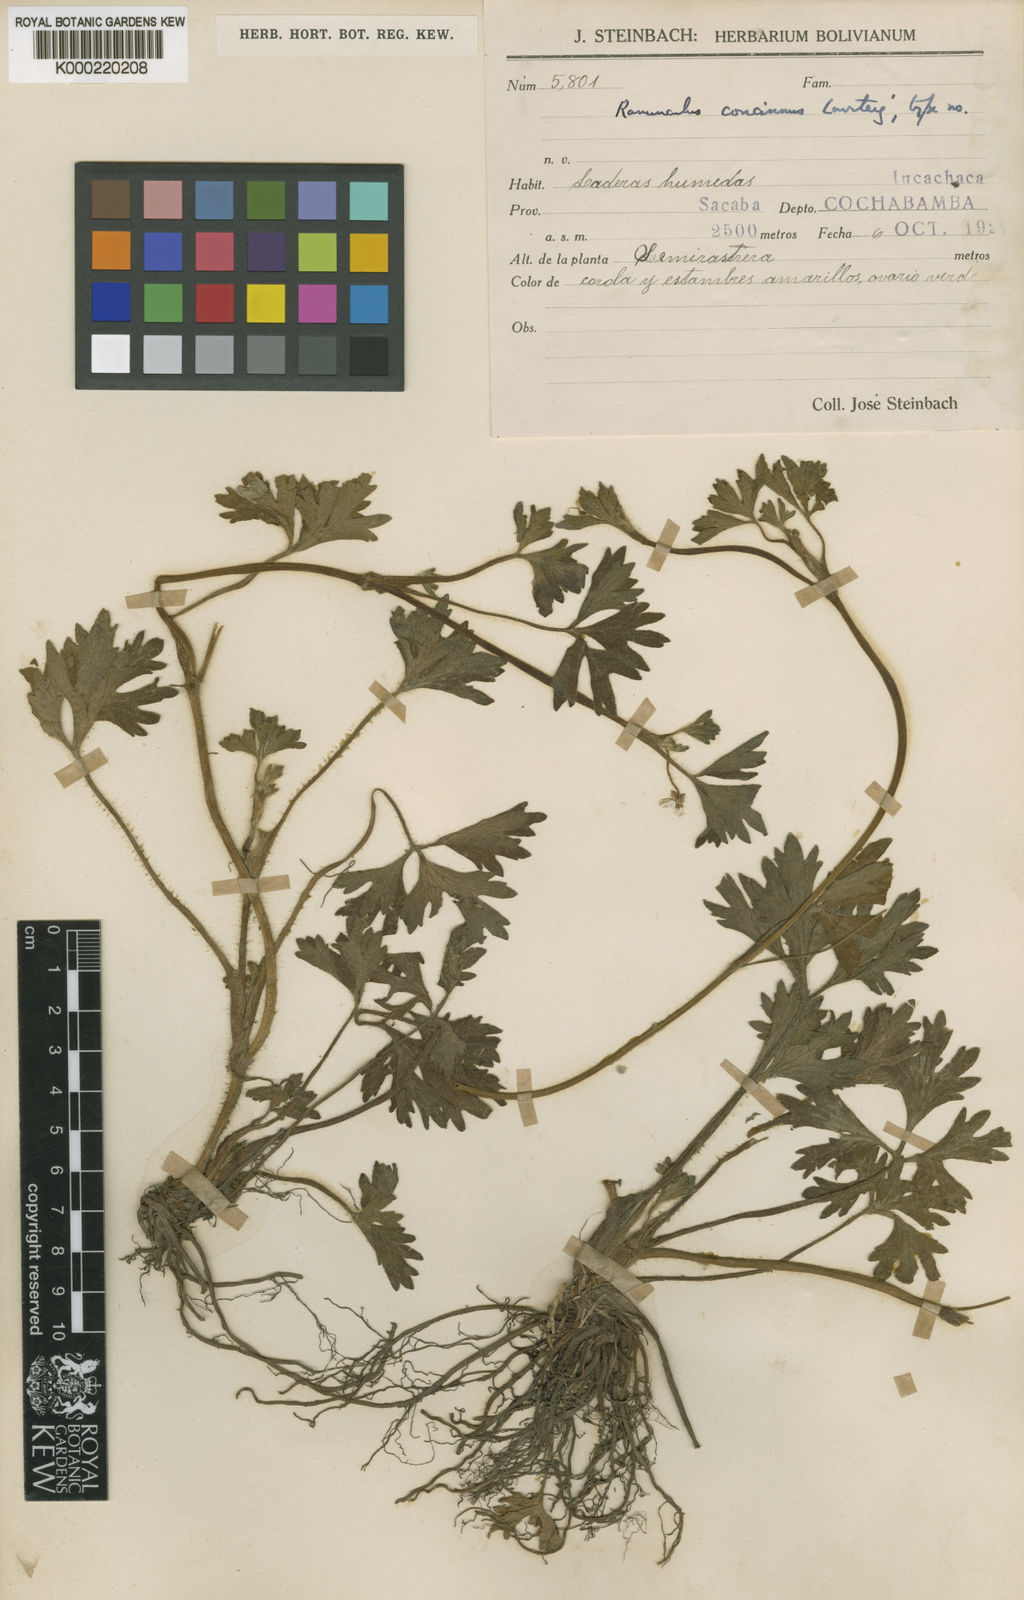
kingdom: Plantae
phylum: Tracheophyta
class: Magnoliopsida
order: Ranunculales
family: Ranunculaceae
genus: Ranunculus
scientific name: Ranunculus lourteigiae
